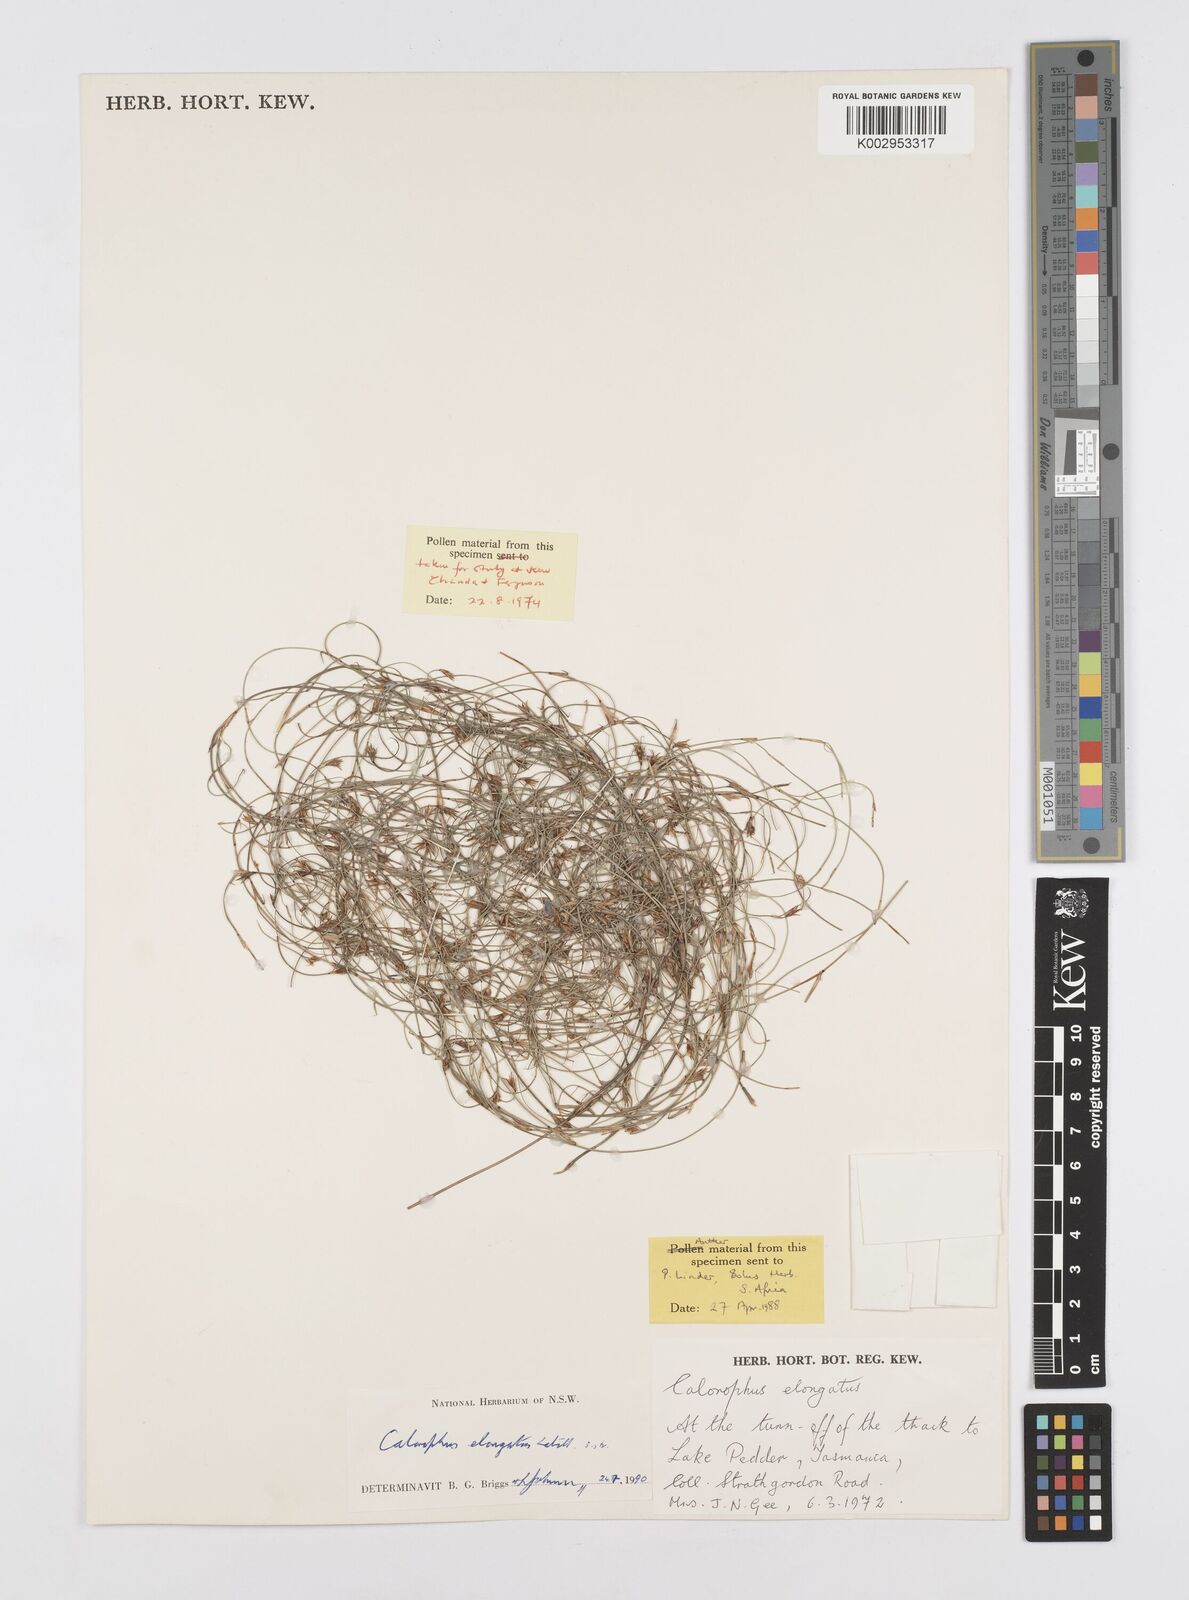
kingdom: Plantae
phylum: Tracheophyta
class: Liliopsida
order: Poales
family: Restionaceae
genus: Calorophus
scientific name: Calorophus elongatus
